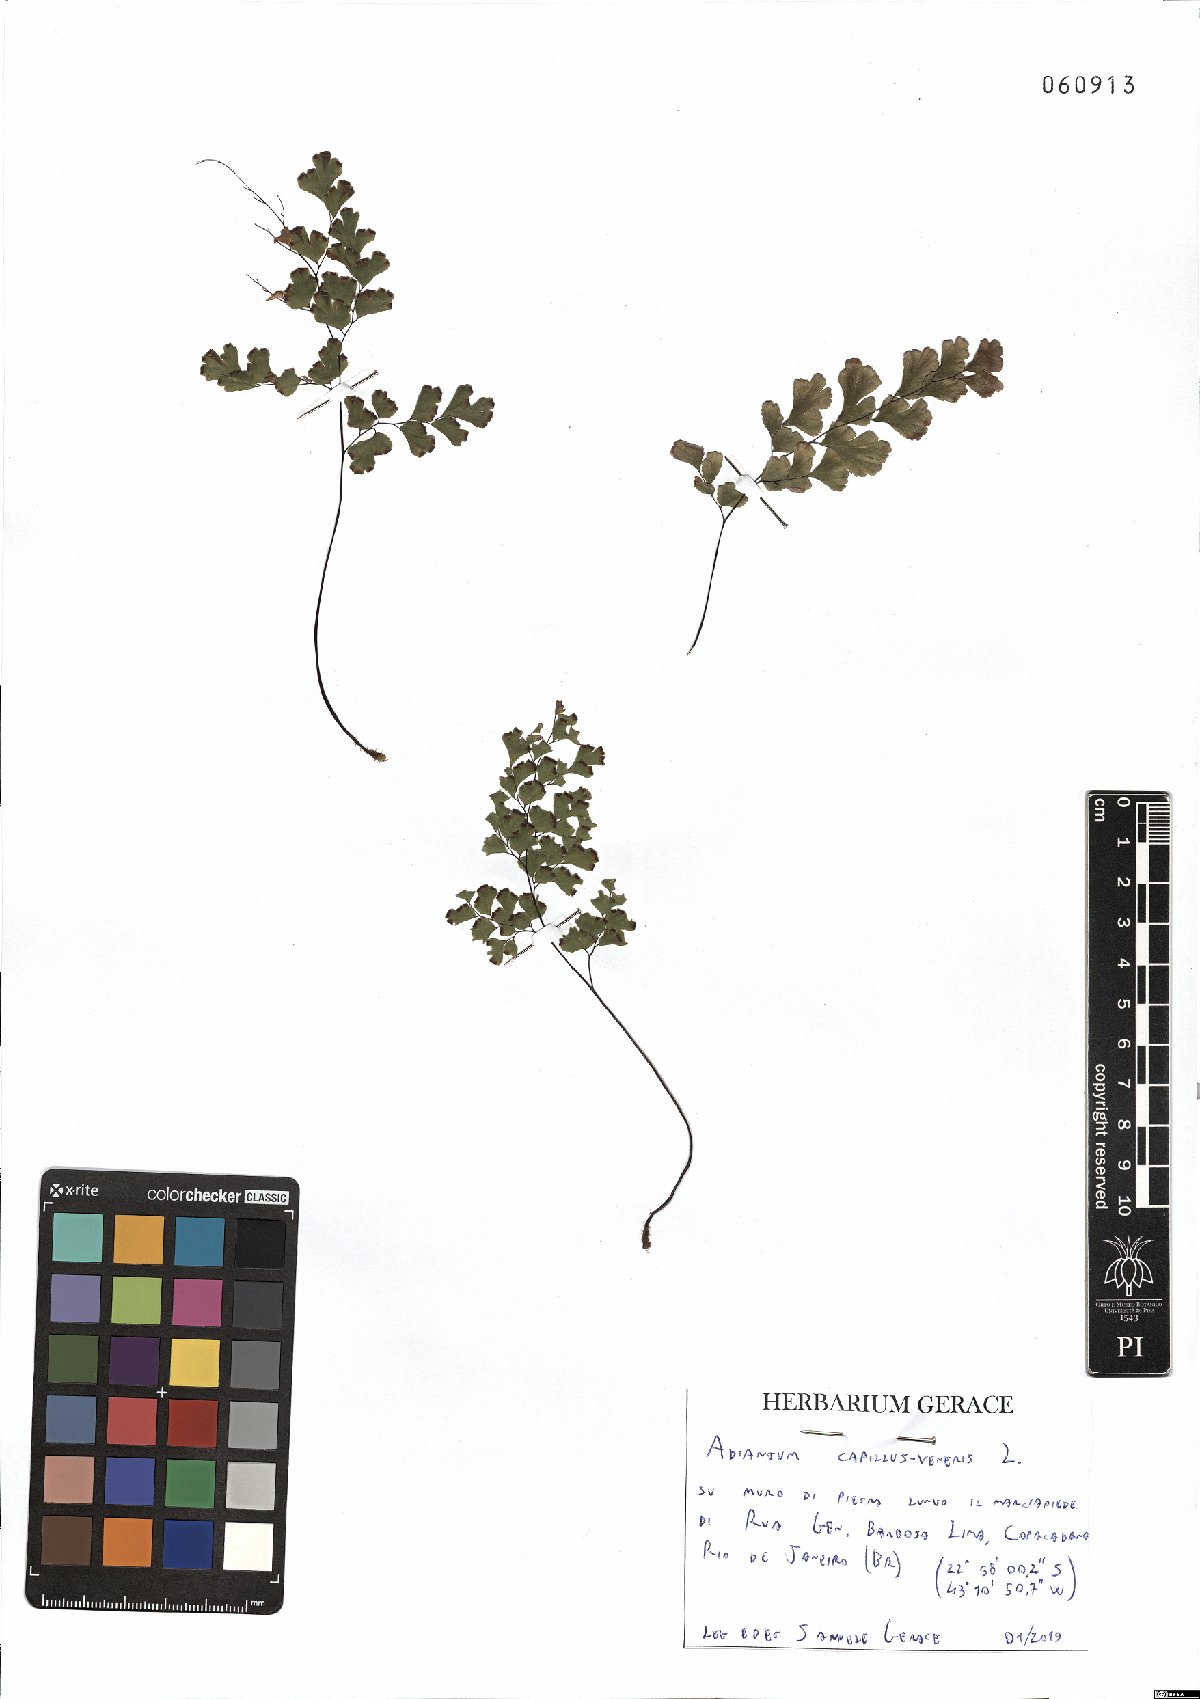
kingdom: Plantae
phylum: Tracheophyta
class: Polypodiopsida
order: Polypodiales
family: Pteridaceae
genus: Adiantum
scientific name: Adiantum capillus-veneris
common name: Maidenhair fern
